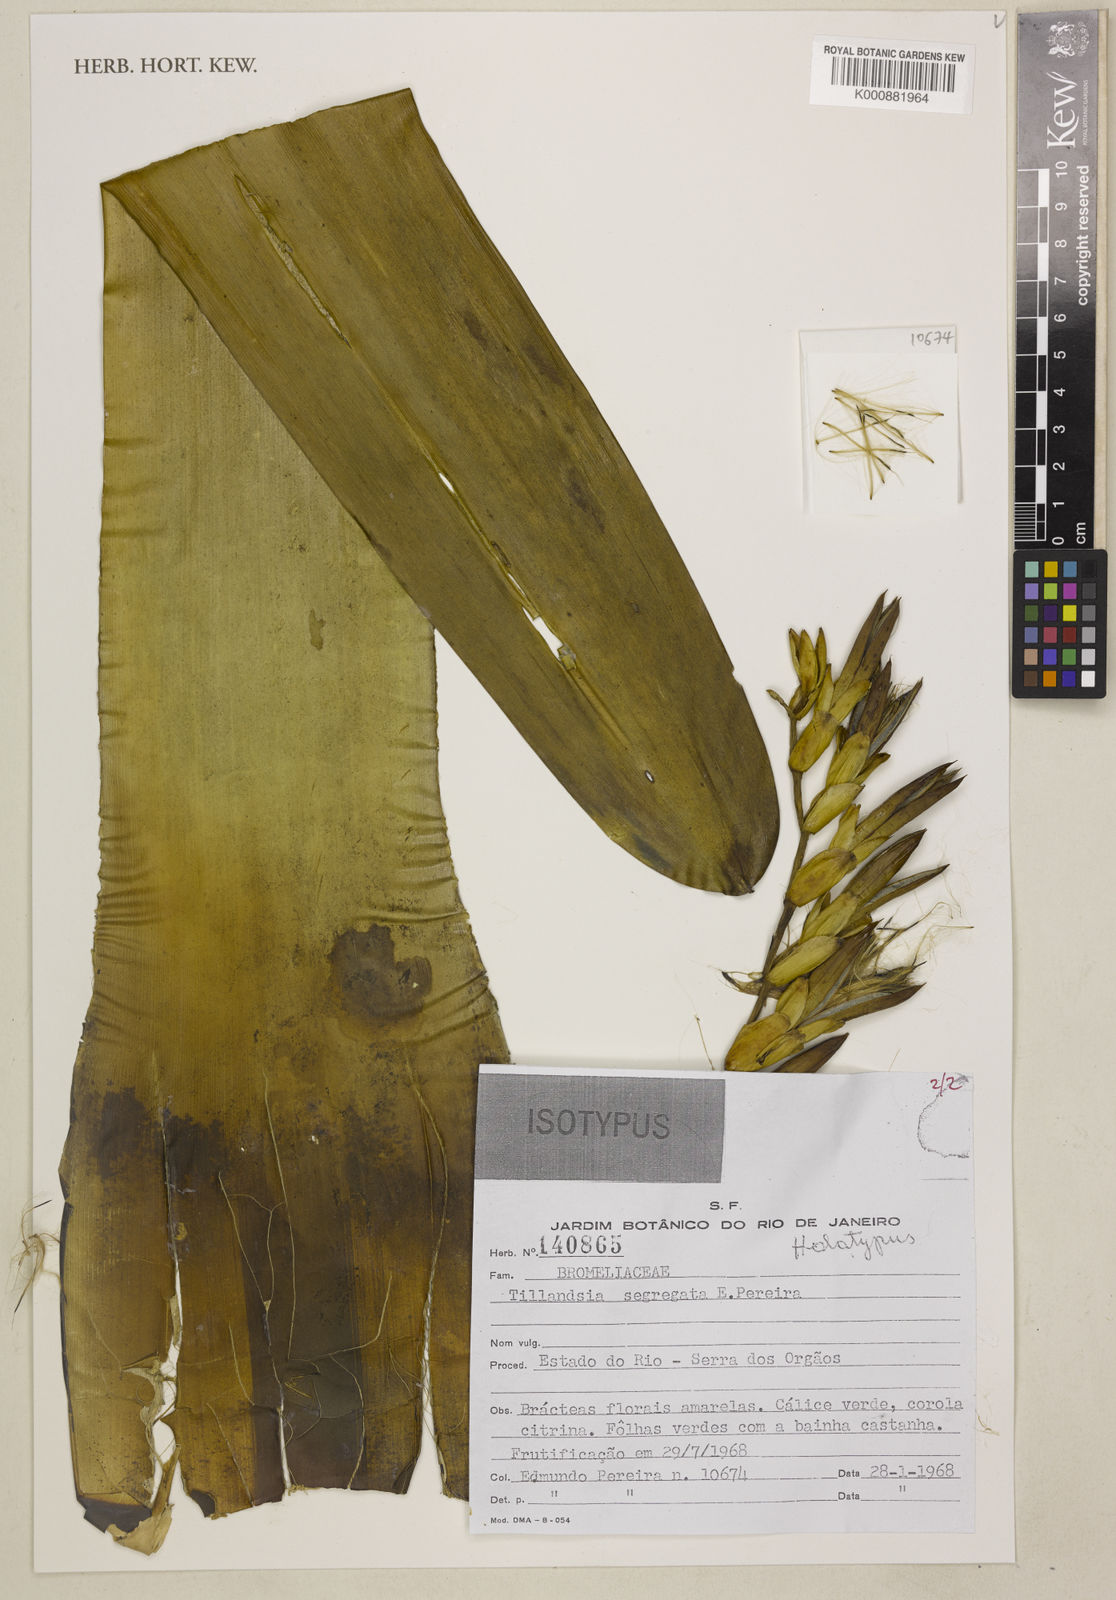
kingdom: Plantae
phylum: Tracheophyta
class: Liliopsida
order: Poales
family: Bromeliaceae
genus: Vriesea
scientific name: Vriesea morreni
